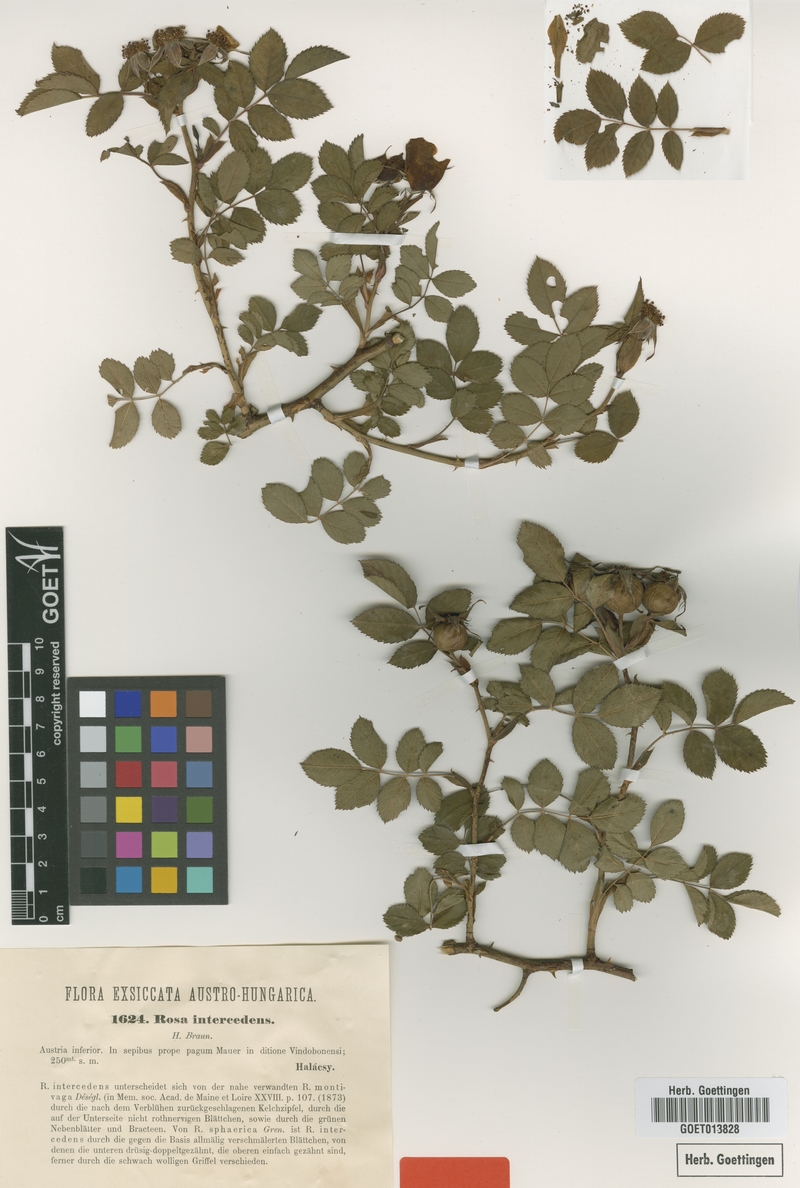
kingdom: Plantae
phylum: Tracheophyta
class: Magnoliopsida
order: Rosales
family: Rosaceae
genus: Rosa
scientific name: Rosa canina
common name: Dog rose
